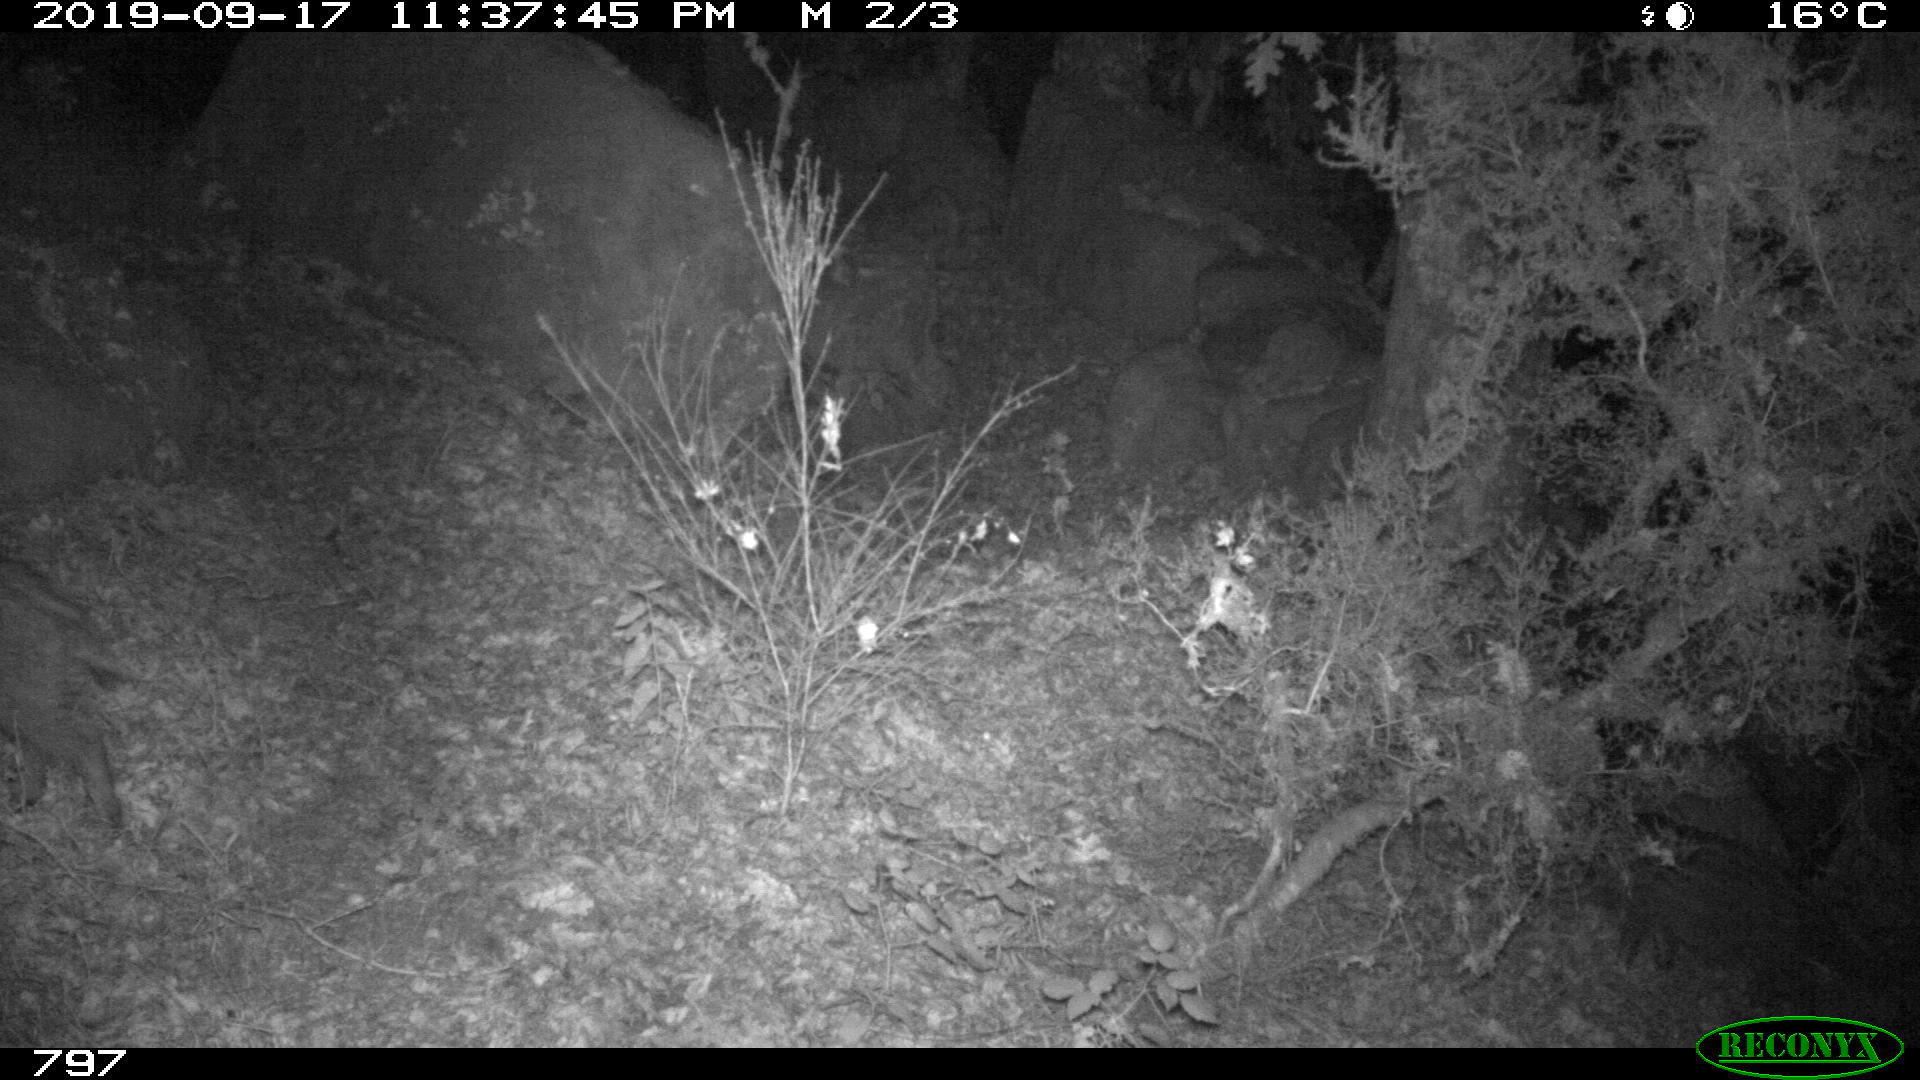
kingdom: Animalia
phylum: Chordata
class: Mammalia
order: Artiodactyla
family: Suidae
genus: Sus
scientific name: Sus scrofa
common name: Wild boar
